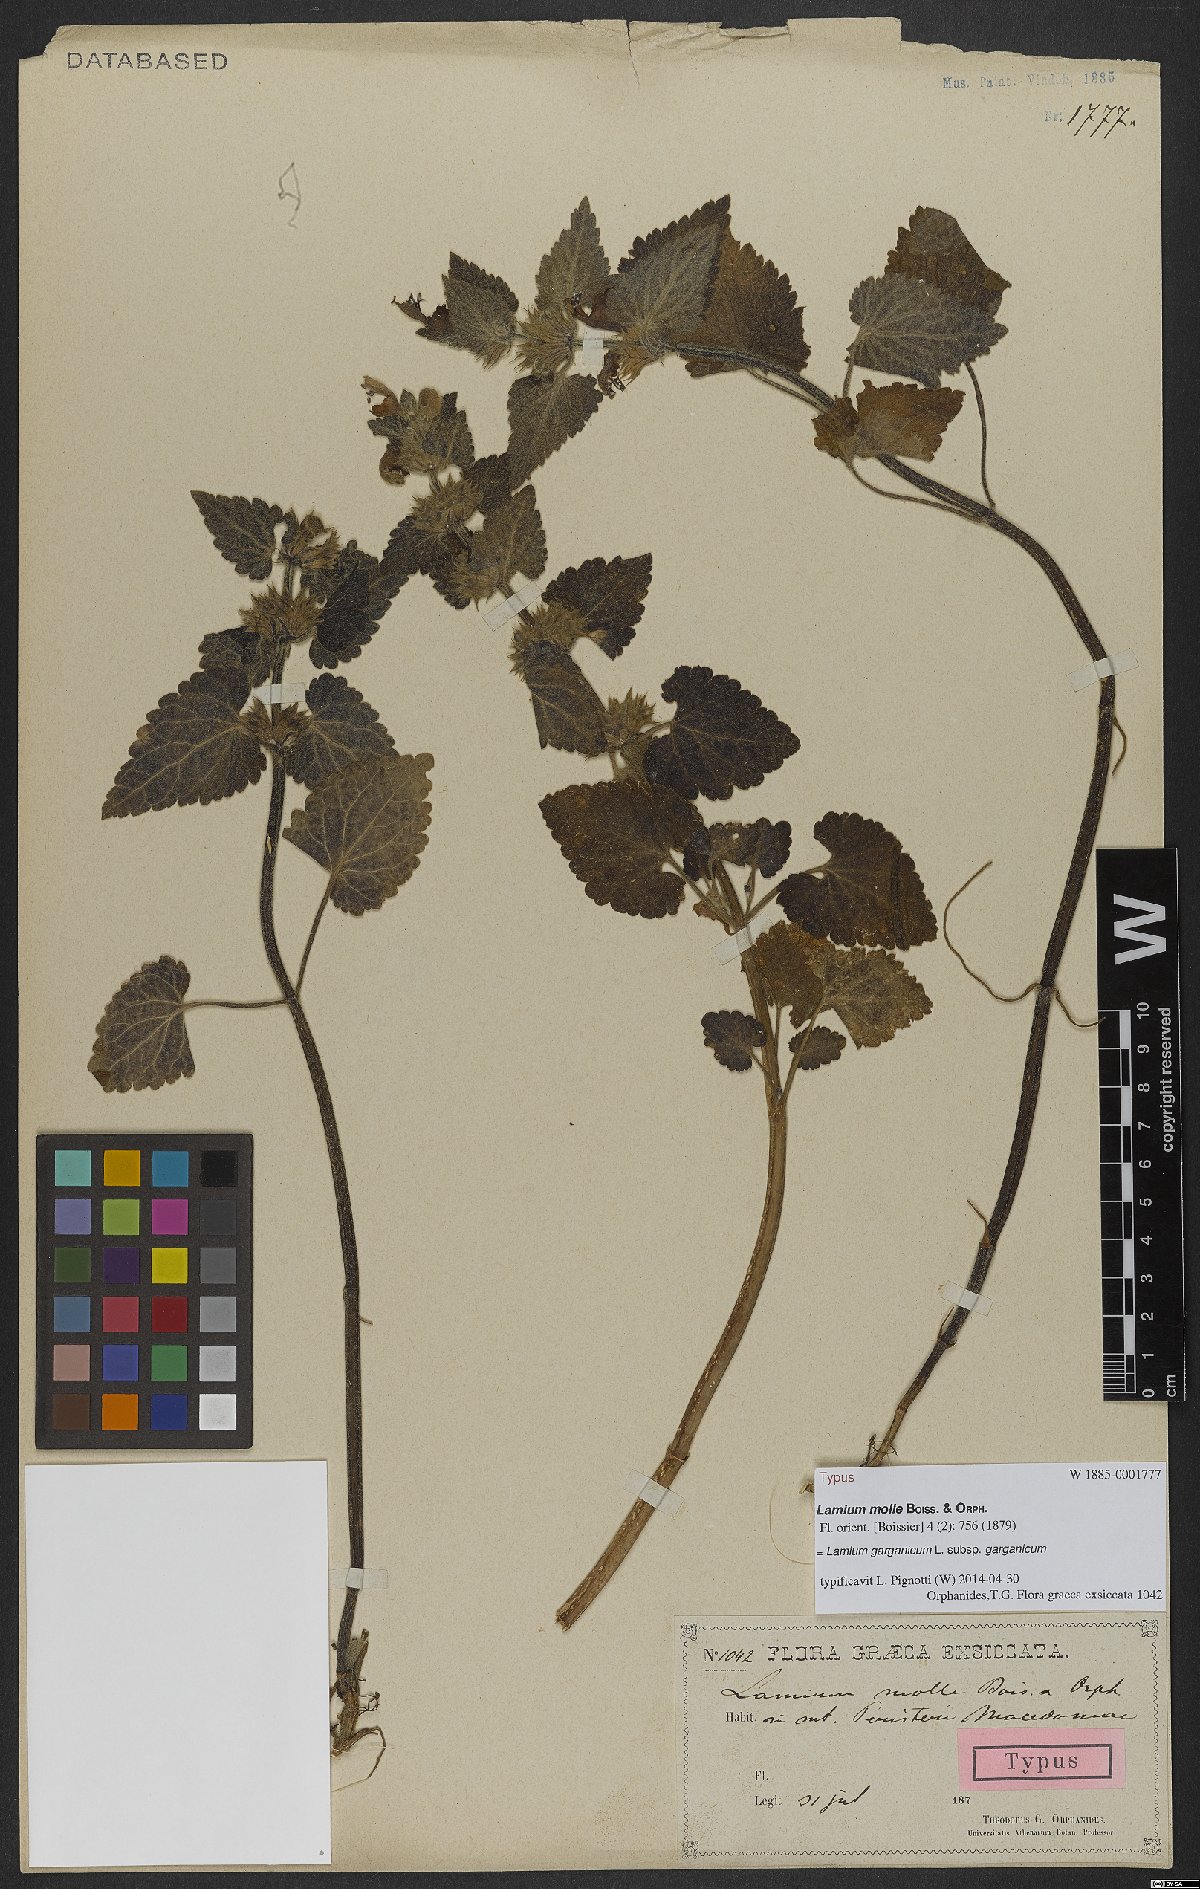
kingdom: Plantae
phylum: Tracheophyta
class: Magnoliopsida
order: Lamiales
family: Lamiaceae
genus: Lamium
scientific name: Lamium garganicum
